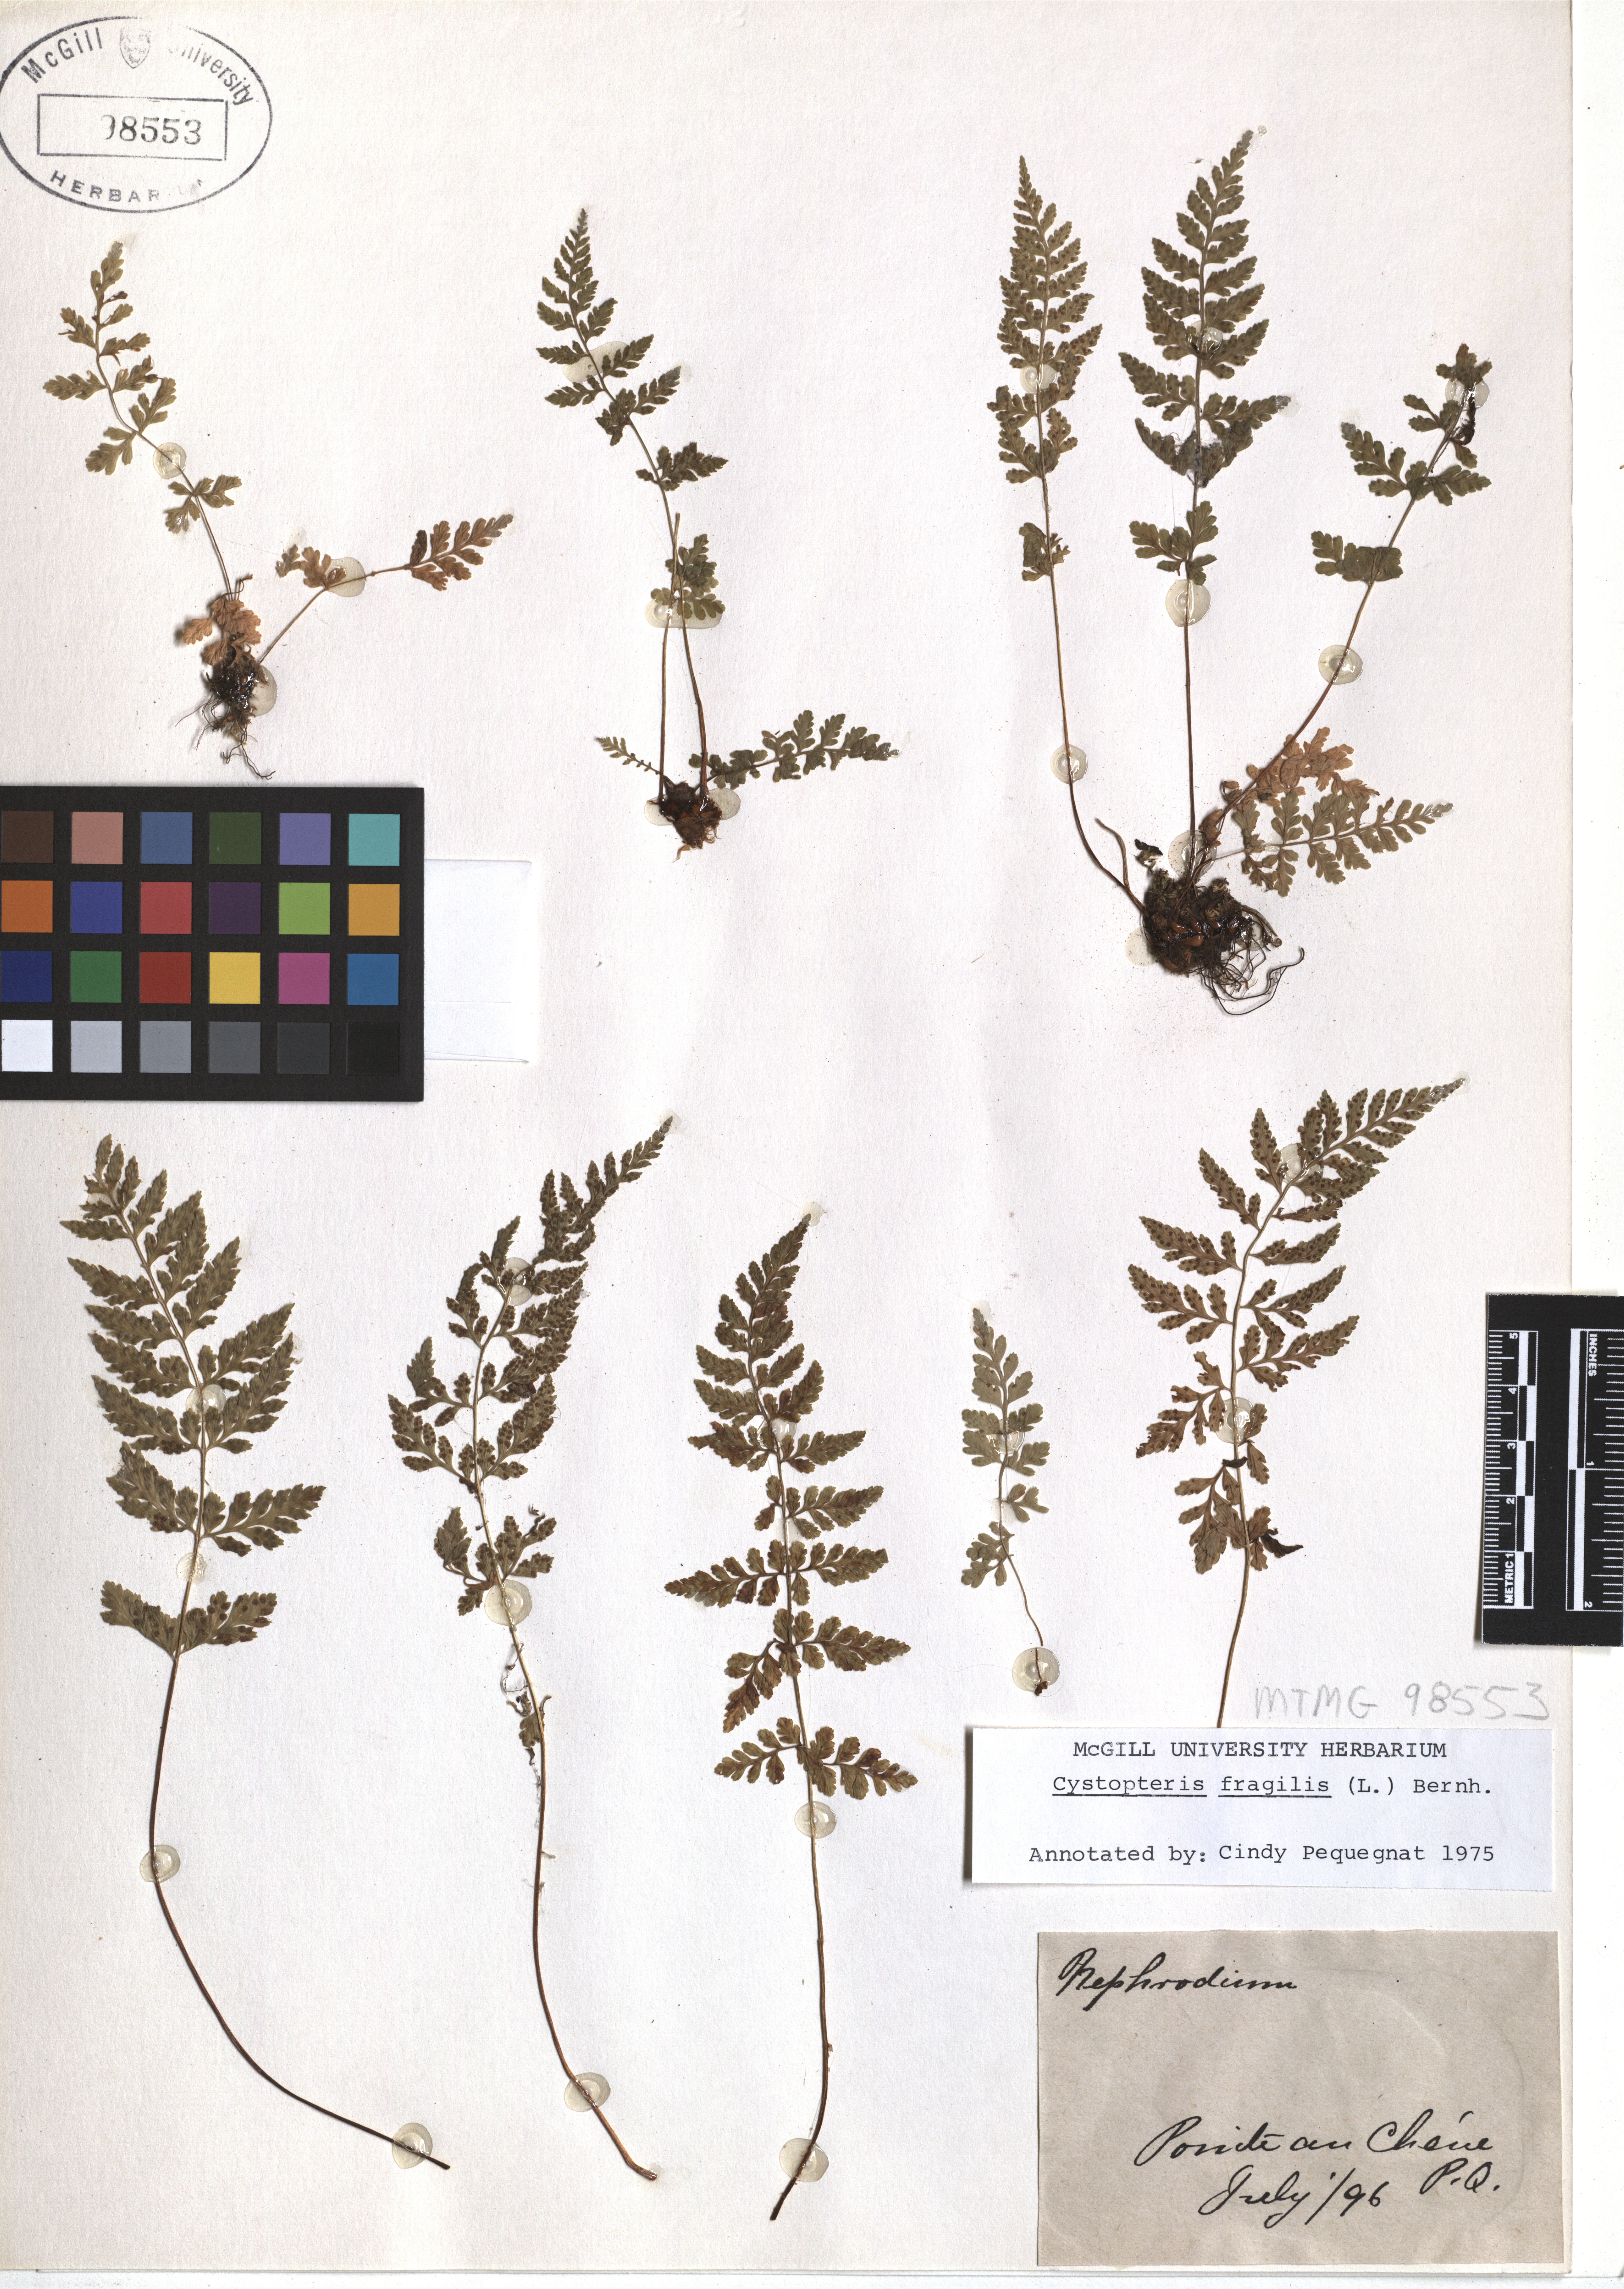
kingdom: Plantae
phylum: Tracheophyta
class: Polypodiopsida
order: Polypodiales
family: Cystopteridaceae
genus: Cystopteris
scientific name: Cystopteris fragilis
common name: Brittle bladder fern
